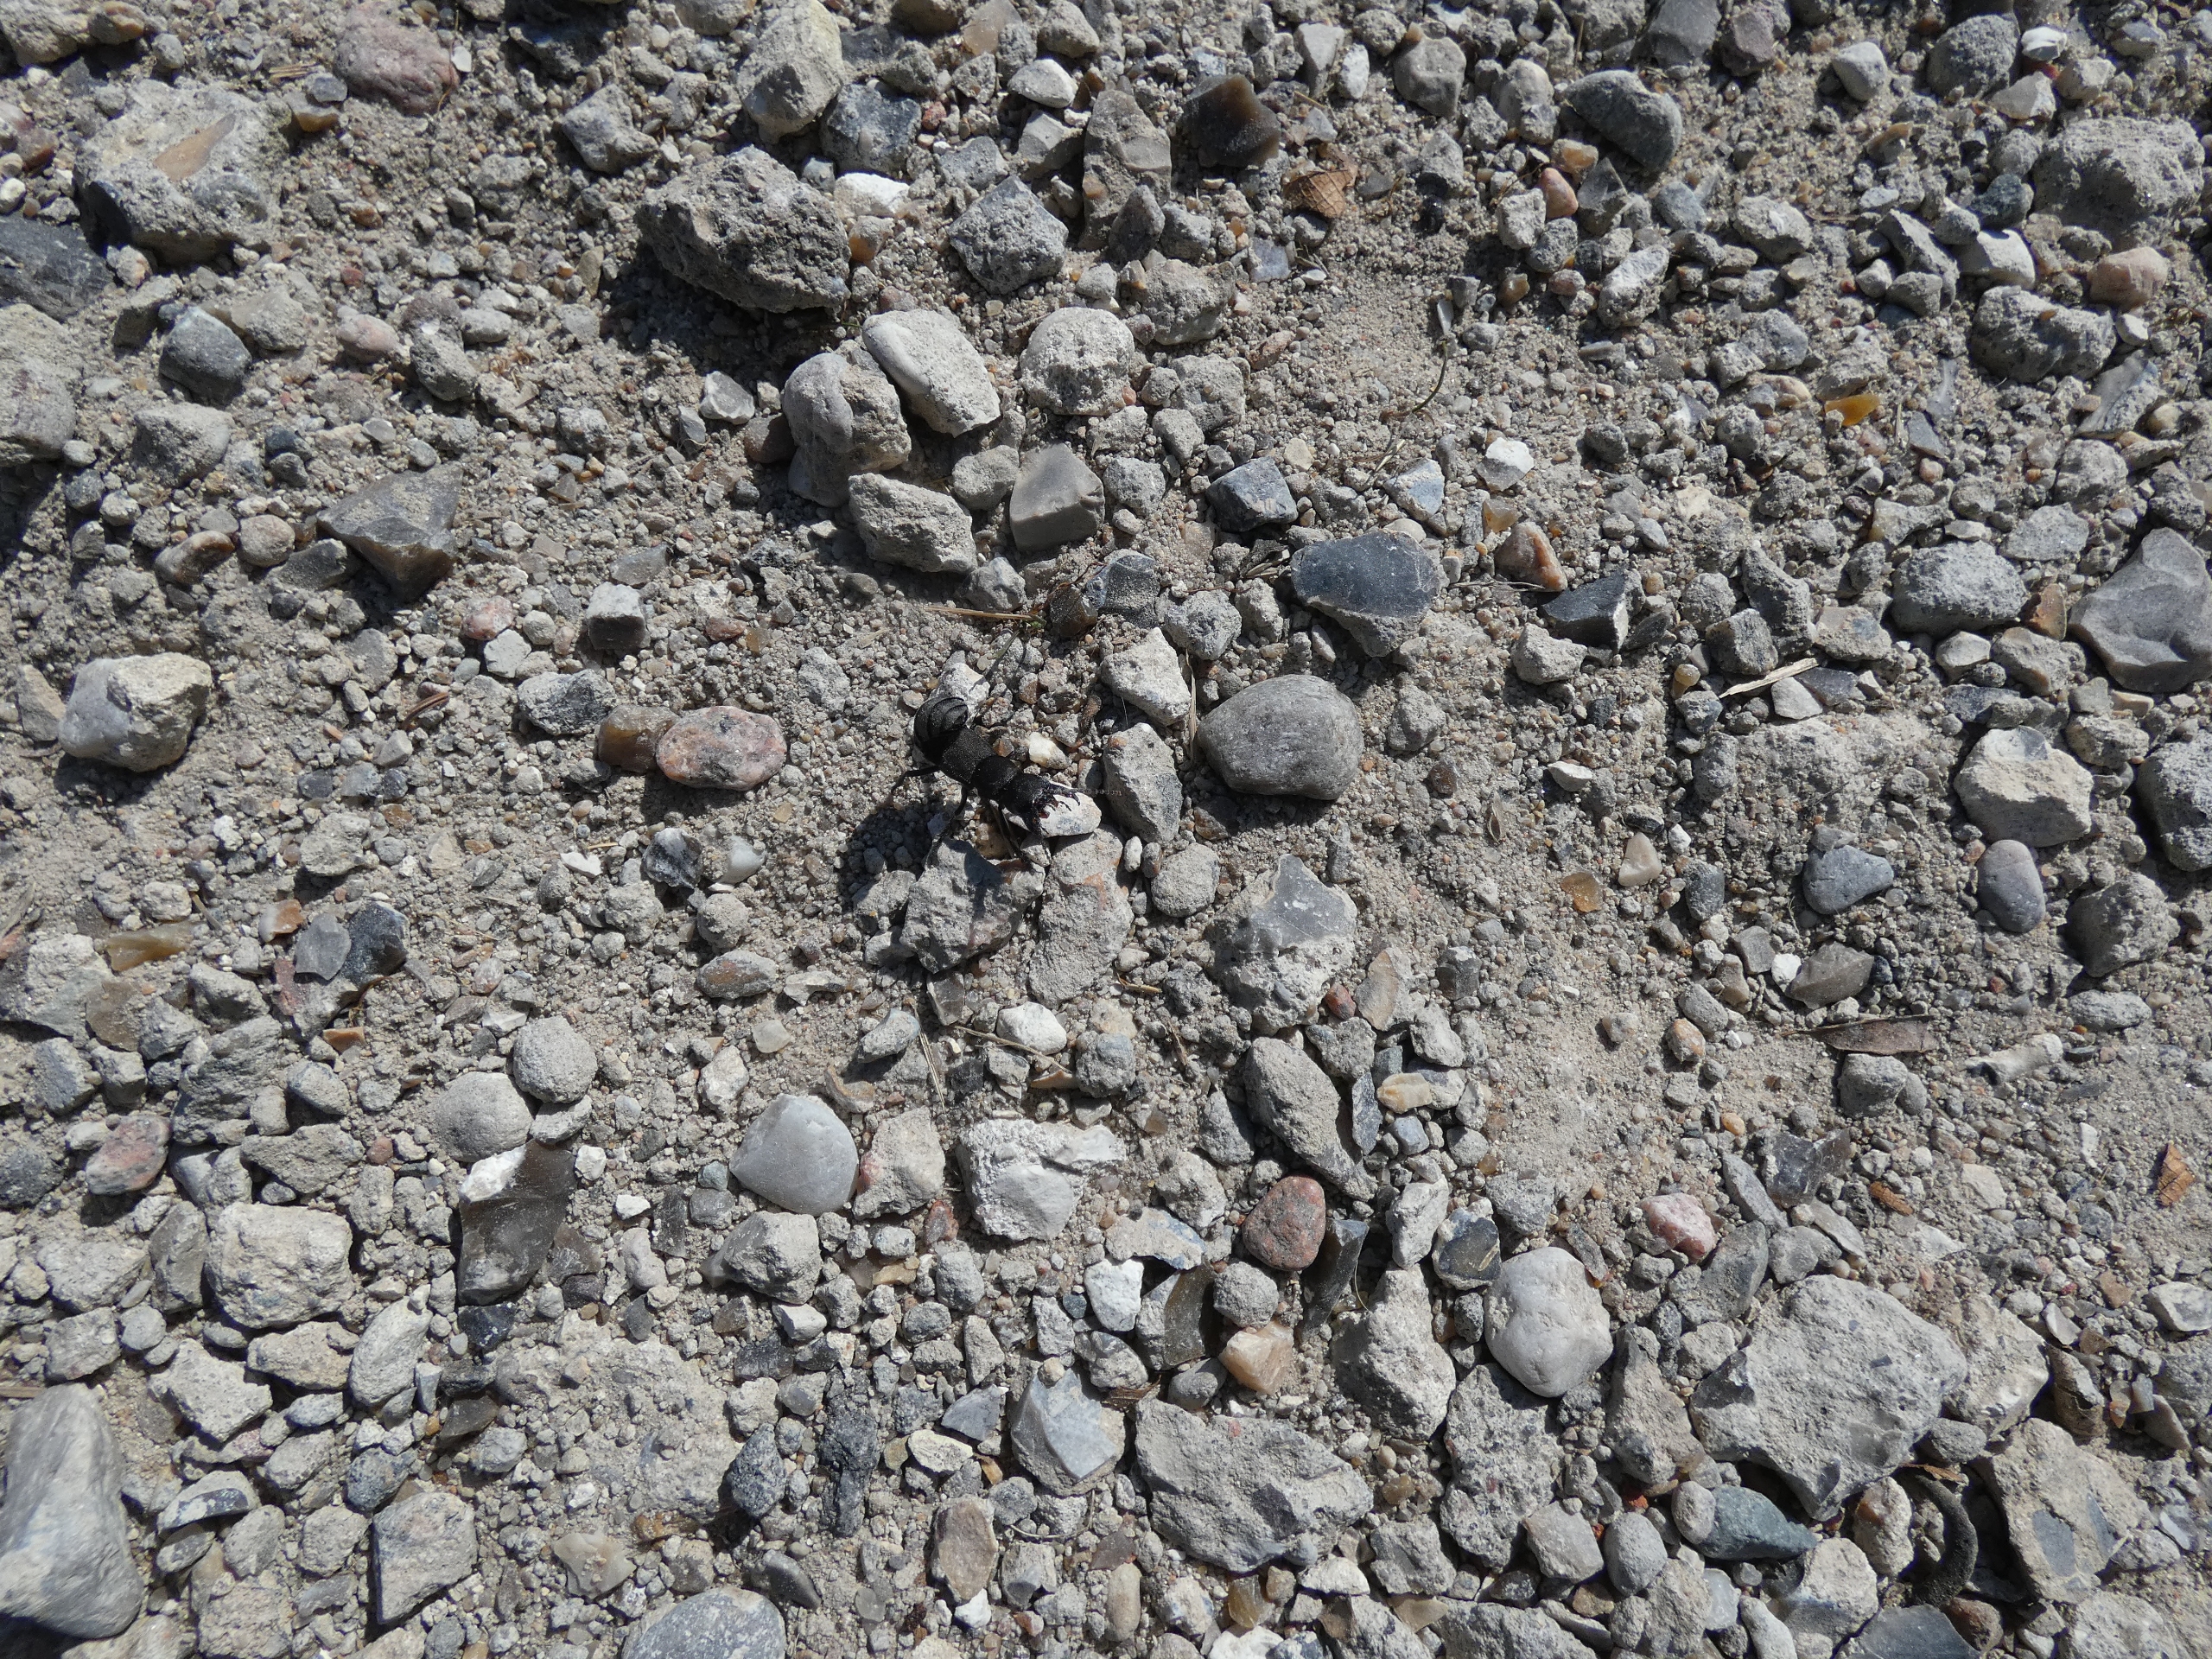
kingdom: Animalia
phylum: Arthropoda
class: Insecta
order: Coleoptera
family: Staphylinidae
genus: Ocypus
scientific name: Ocypus olens
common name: Stor rovbille
